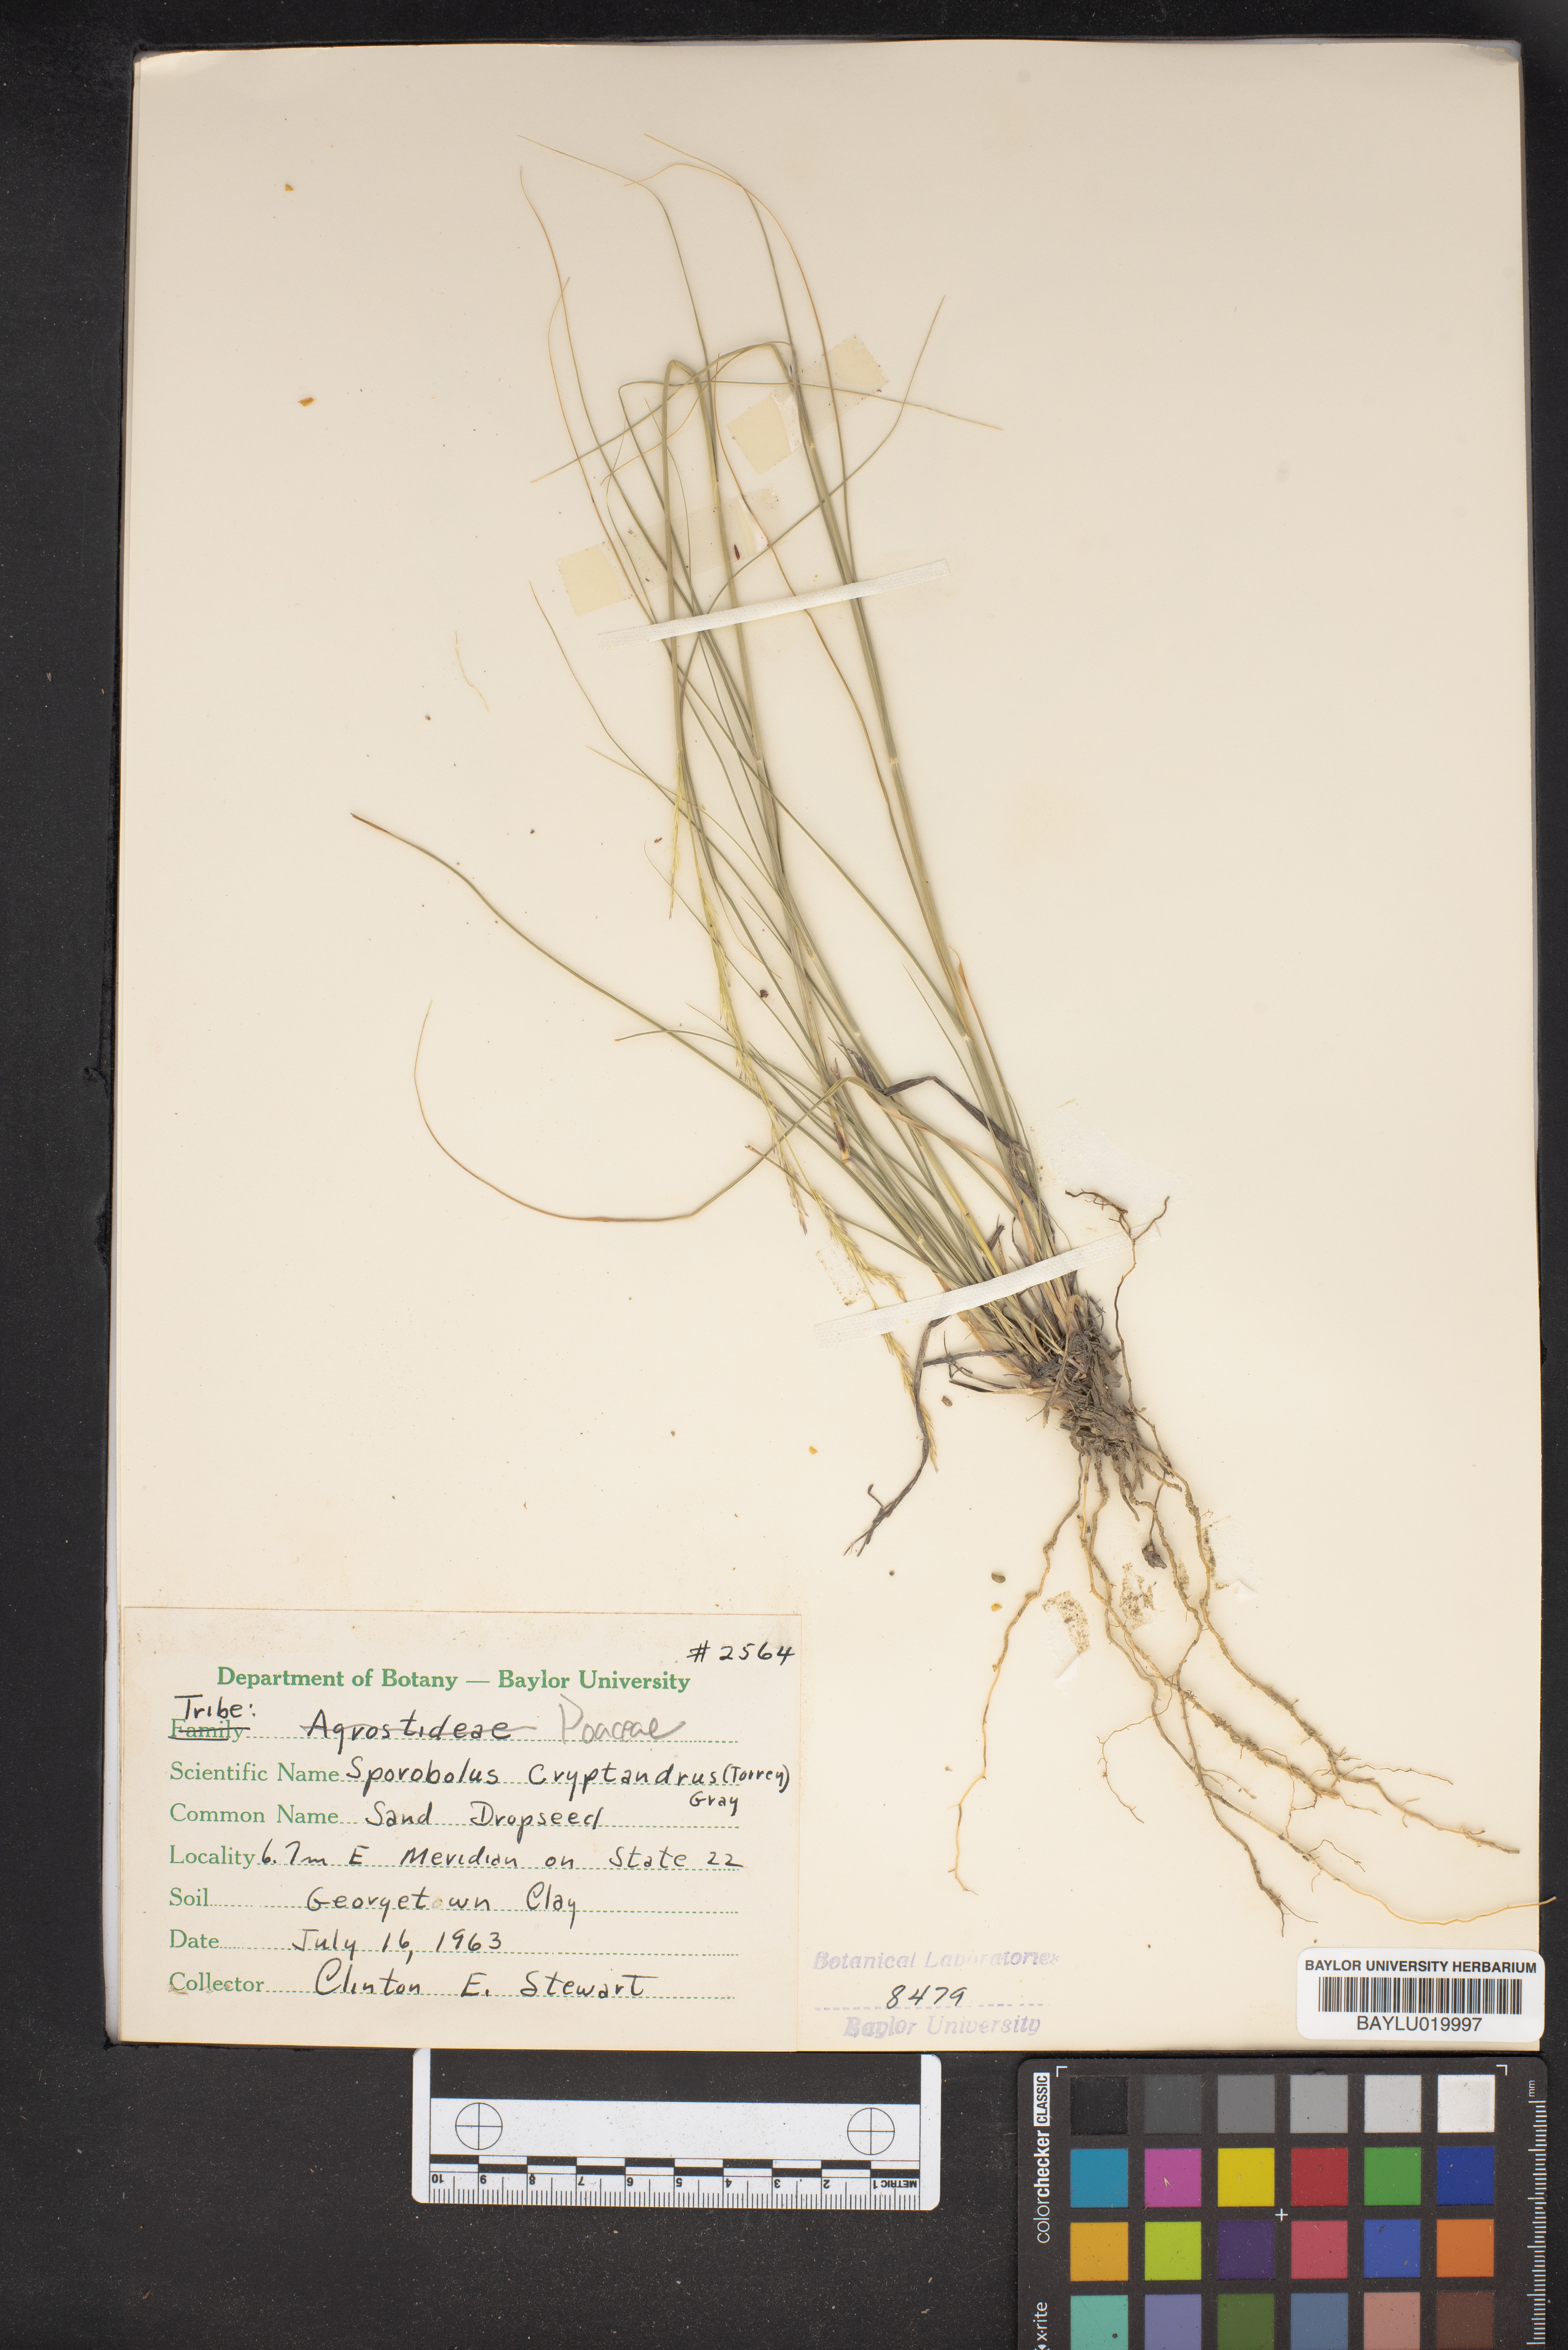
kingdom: Plantae
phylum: Tracheophyta
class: Liliopsida
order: Poales
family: Poaceae
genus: Sporobolus
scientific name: Sporobolus cryptandrus
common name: Sand dropseed
